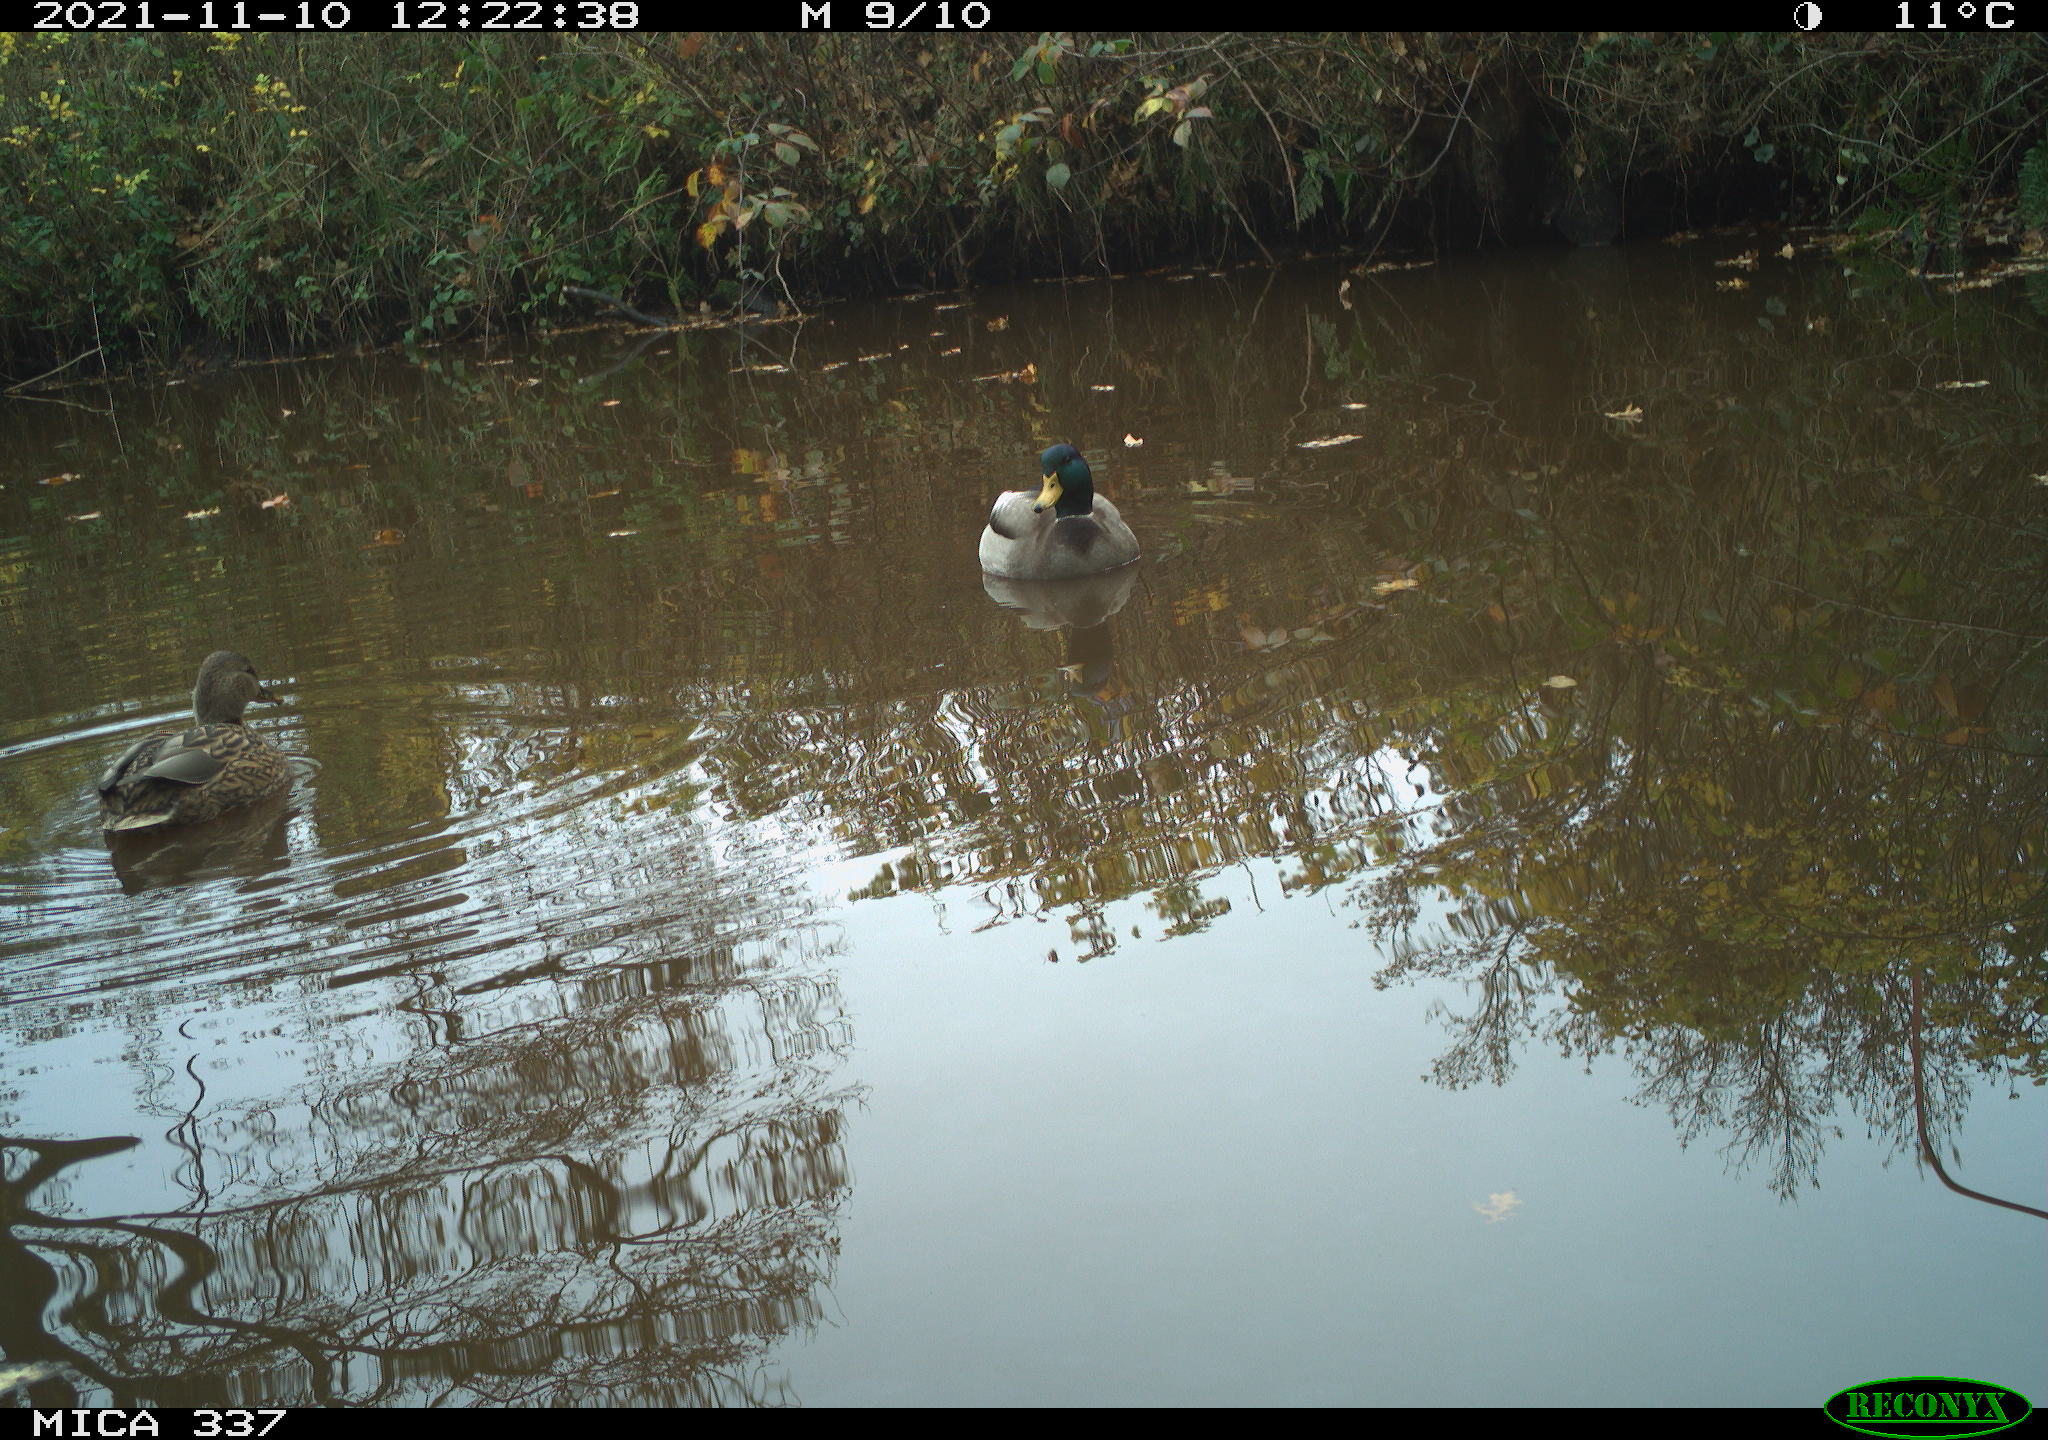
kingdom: Animalia
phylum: Chordata
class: Aves
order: Anseriformes
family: Anatidae
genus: Anas
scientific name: Anas platyrhynchos
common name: Mallard
